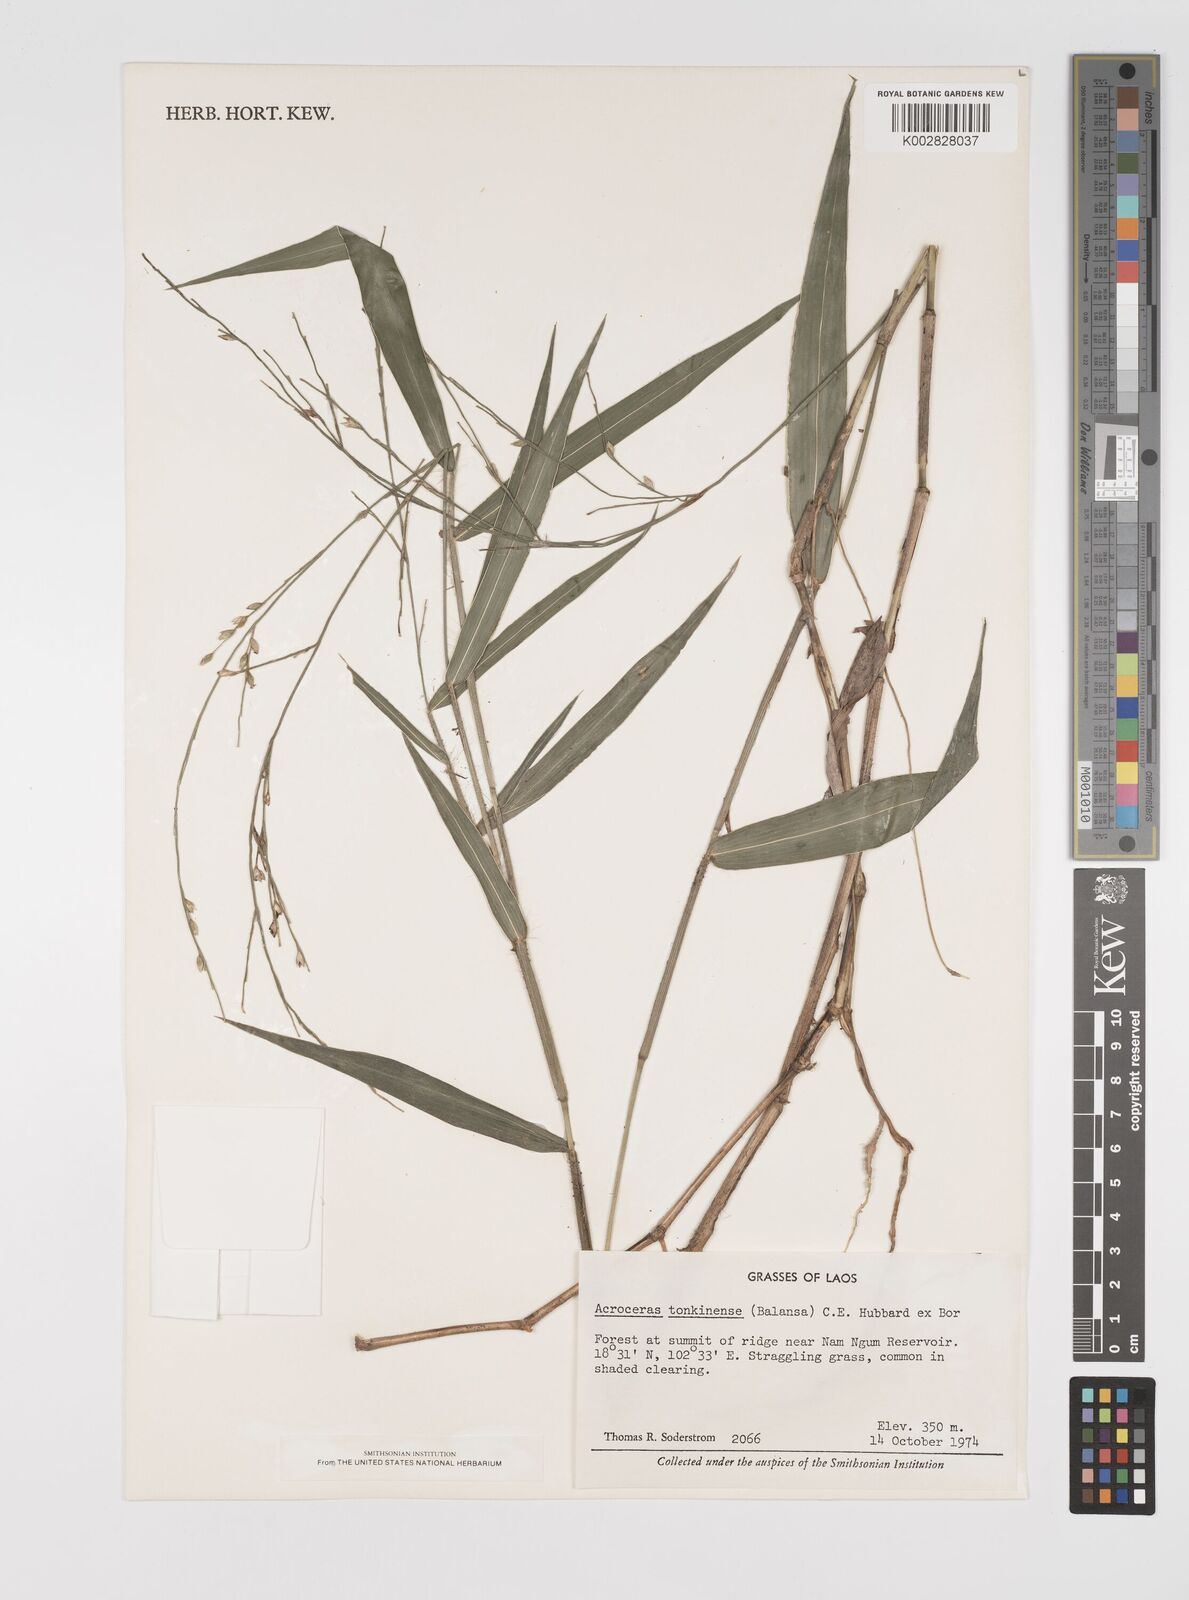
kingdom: Plantae
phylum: Tracheophyta
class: Liliopsida
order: Poales
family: Poaceae
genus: Acroceras
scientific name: Acroceras tonkinense
